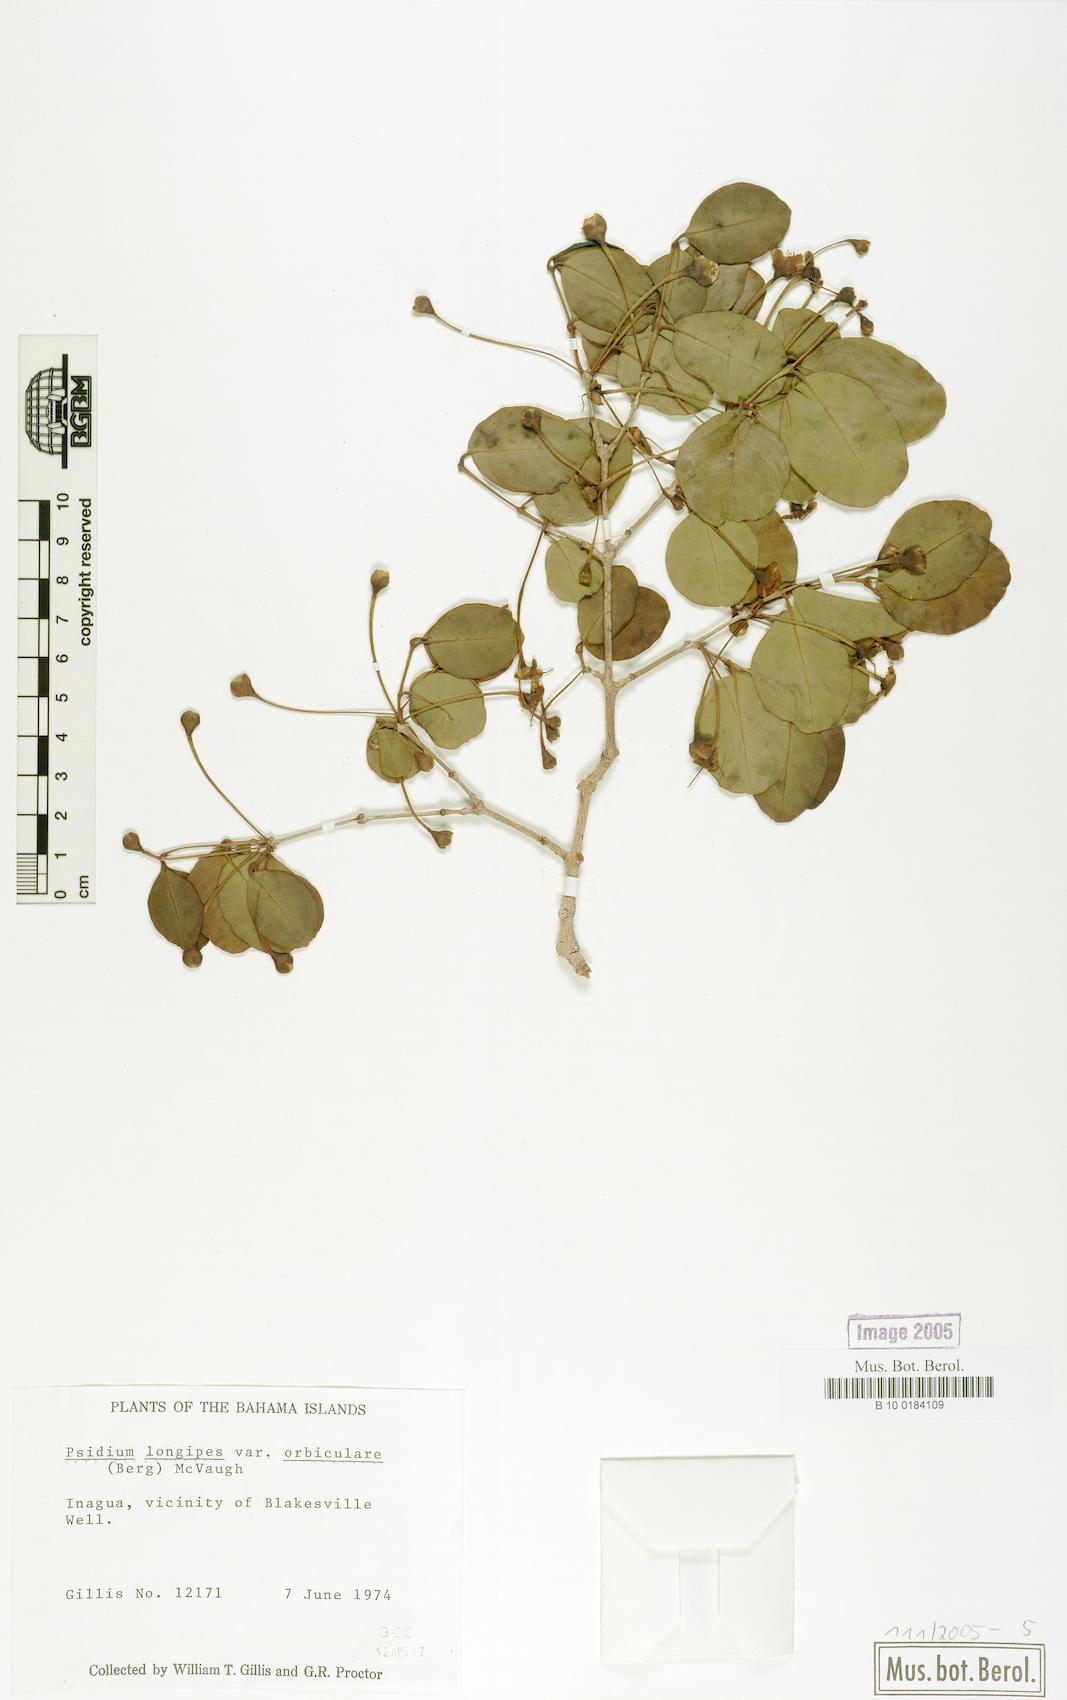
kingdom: Plantae
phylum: Tracheophyta
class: Magnoliopsida
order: Myrtales
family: Myrtaceae
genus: Mosiera
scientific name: Mosiera longipes
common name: Bahama stopper
